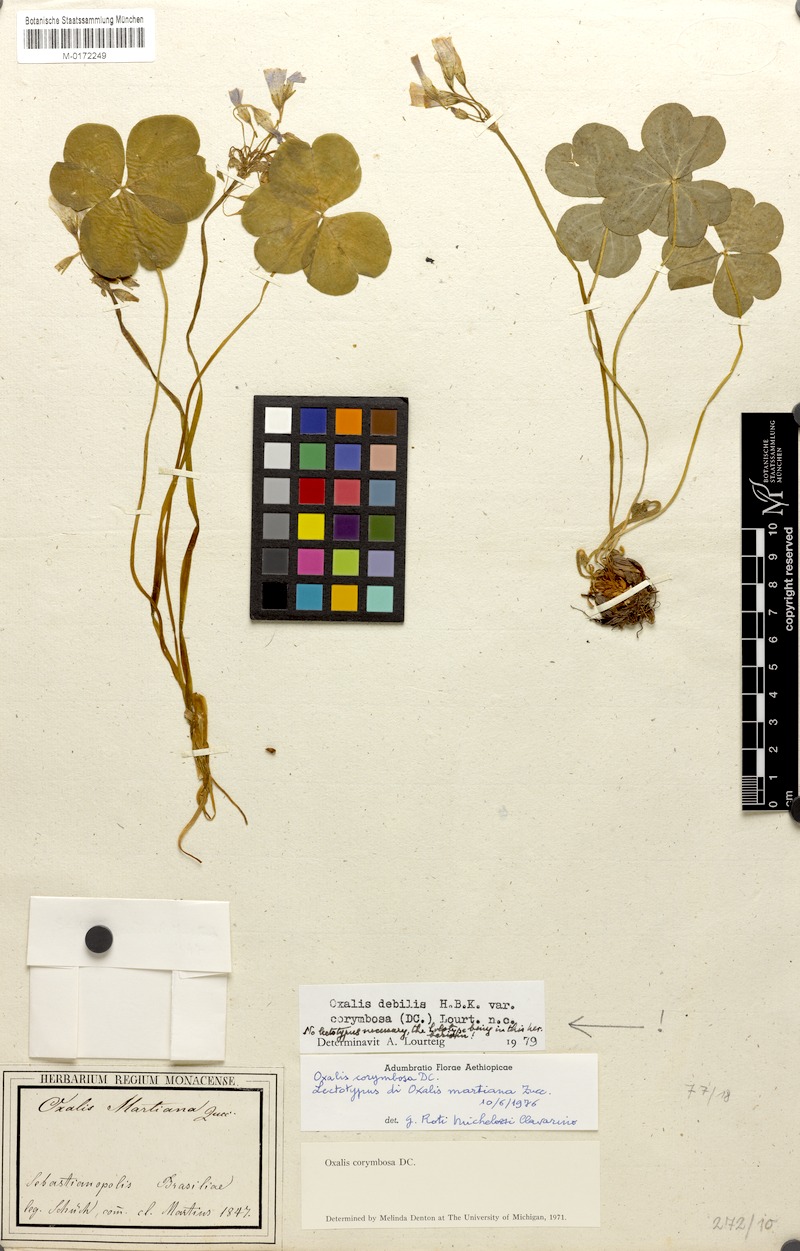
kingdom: Plantae
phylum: Tracheophyta
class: Magnoliopsida
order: Oxalidales
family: Oxalidaceae
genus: Oxalis
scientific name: Oxalis debilis
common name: Large-flowered pink-sorrel
